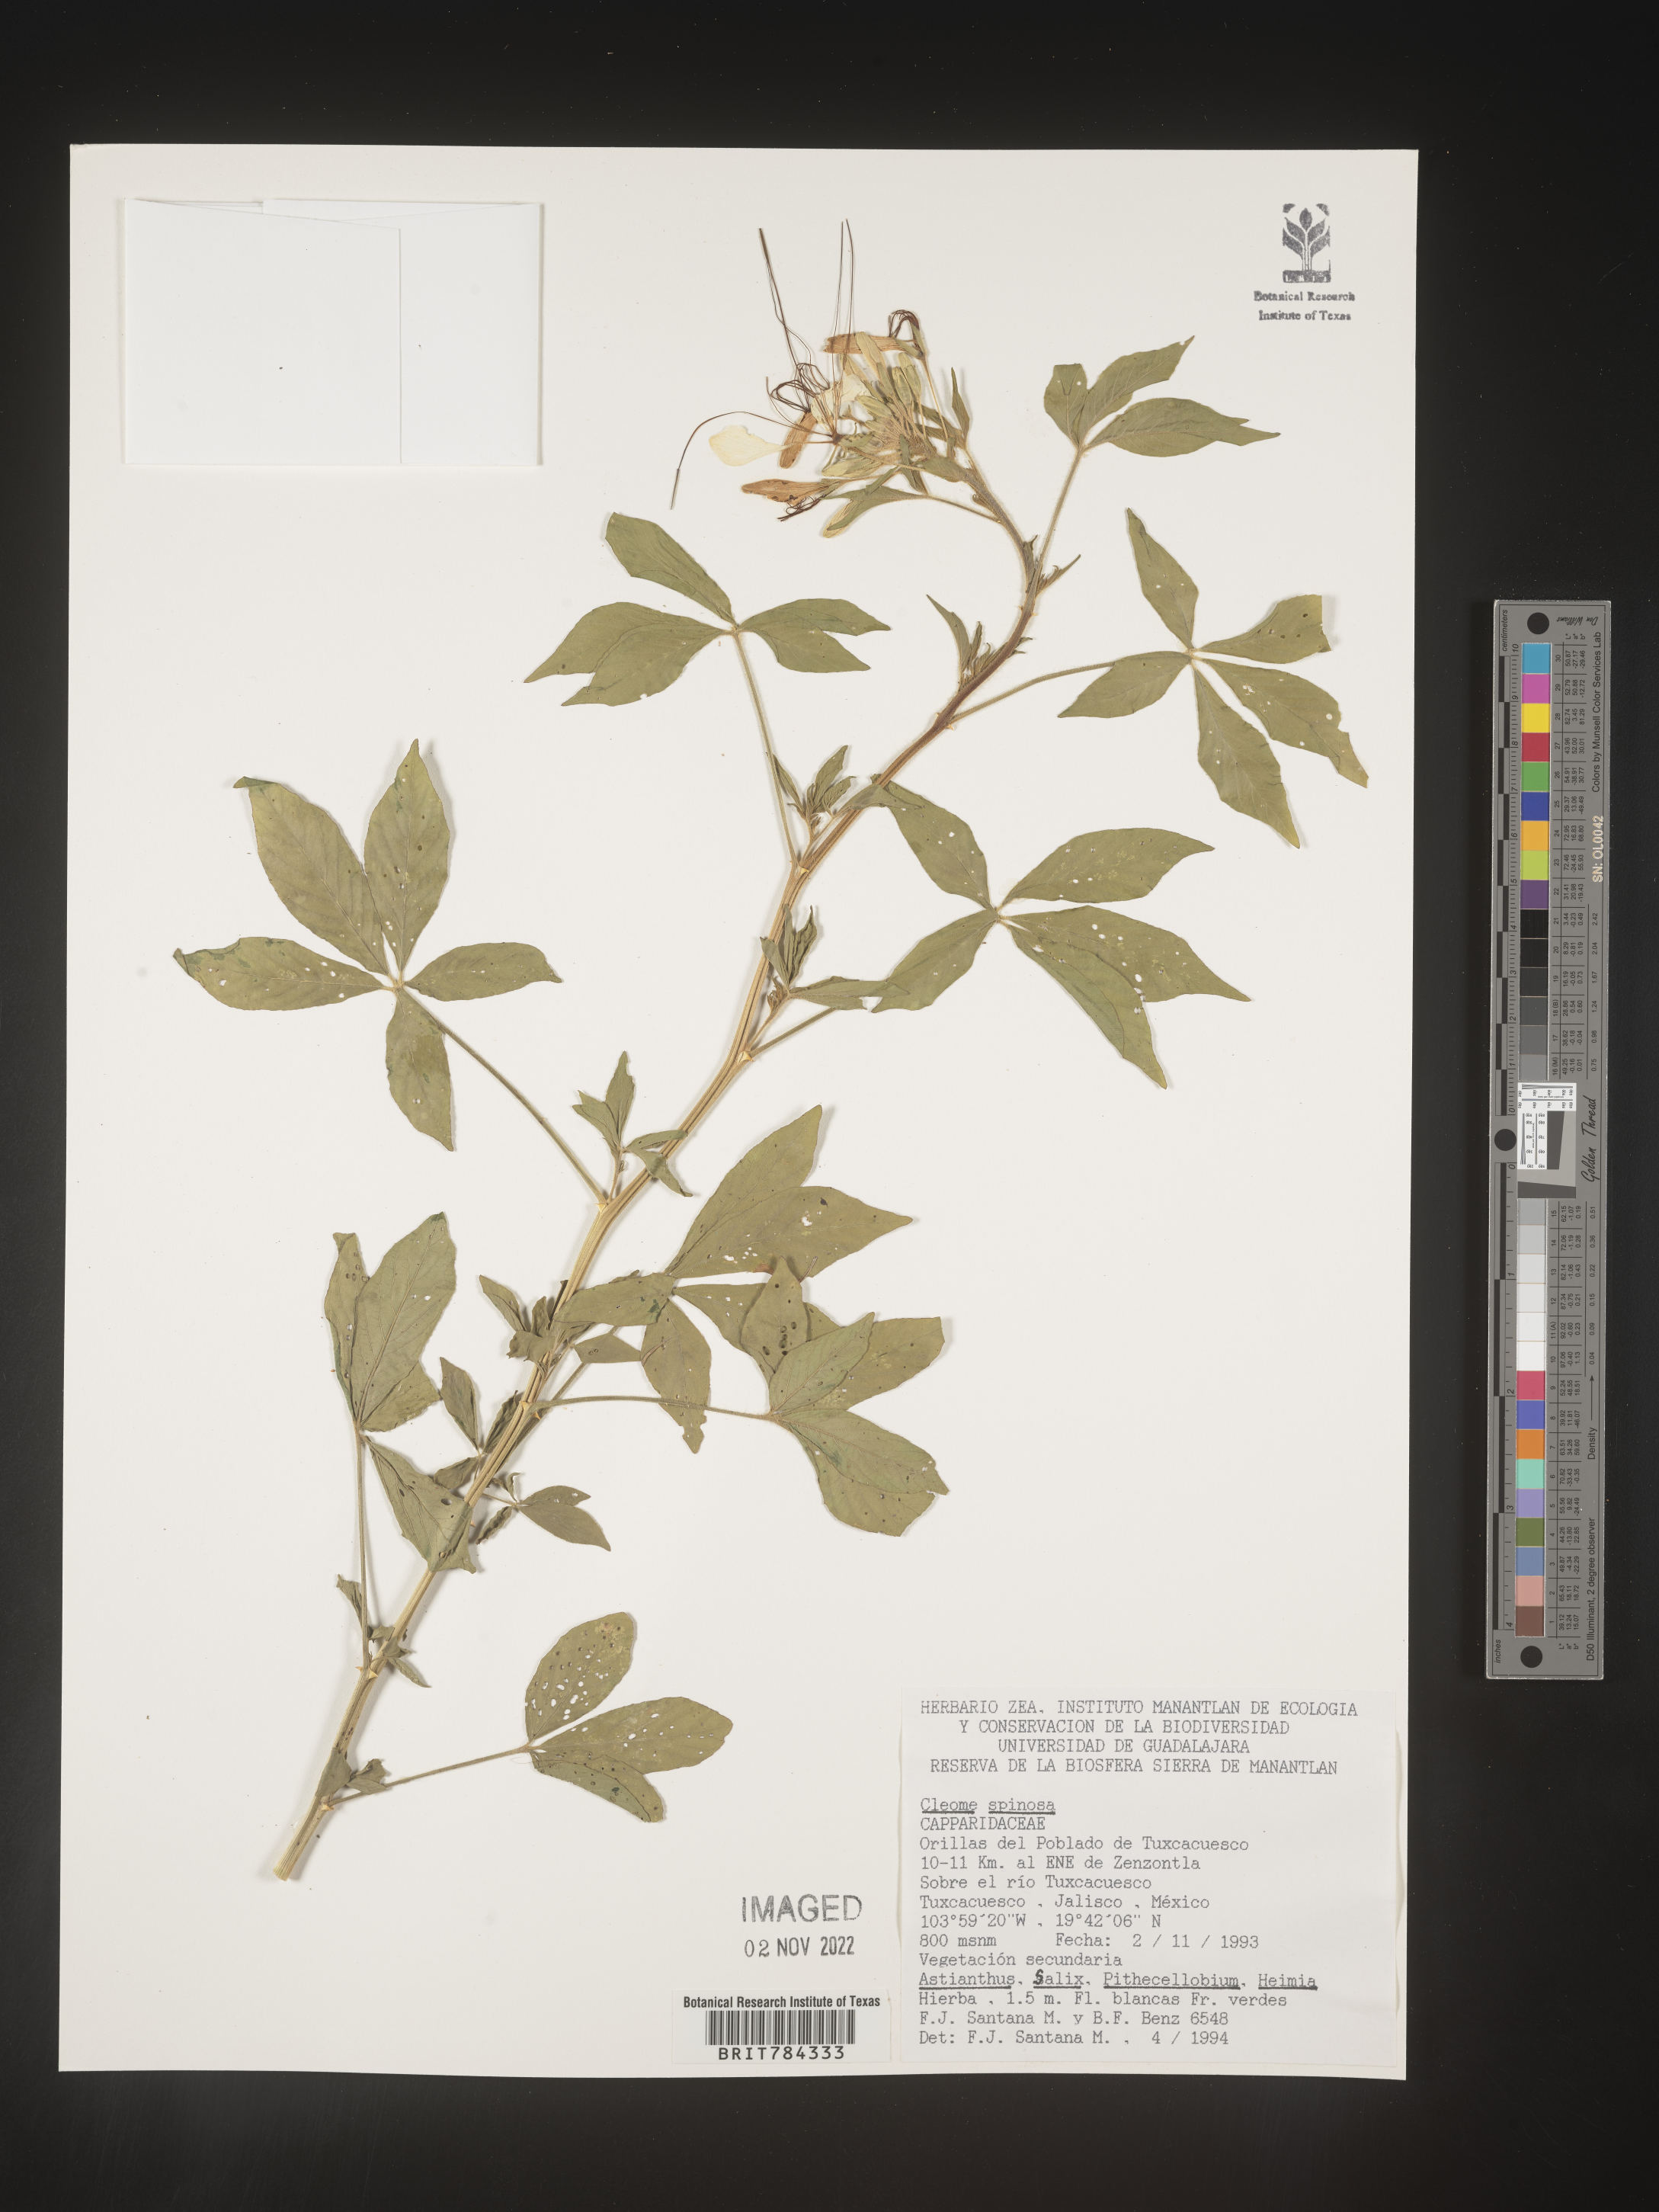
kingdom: Plantae
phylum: Tracheophyta
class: Magnoliopsida
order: Brassicales
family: Cleomaceae
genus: Cleome
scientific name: Cleome
